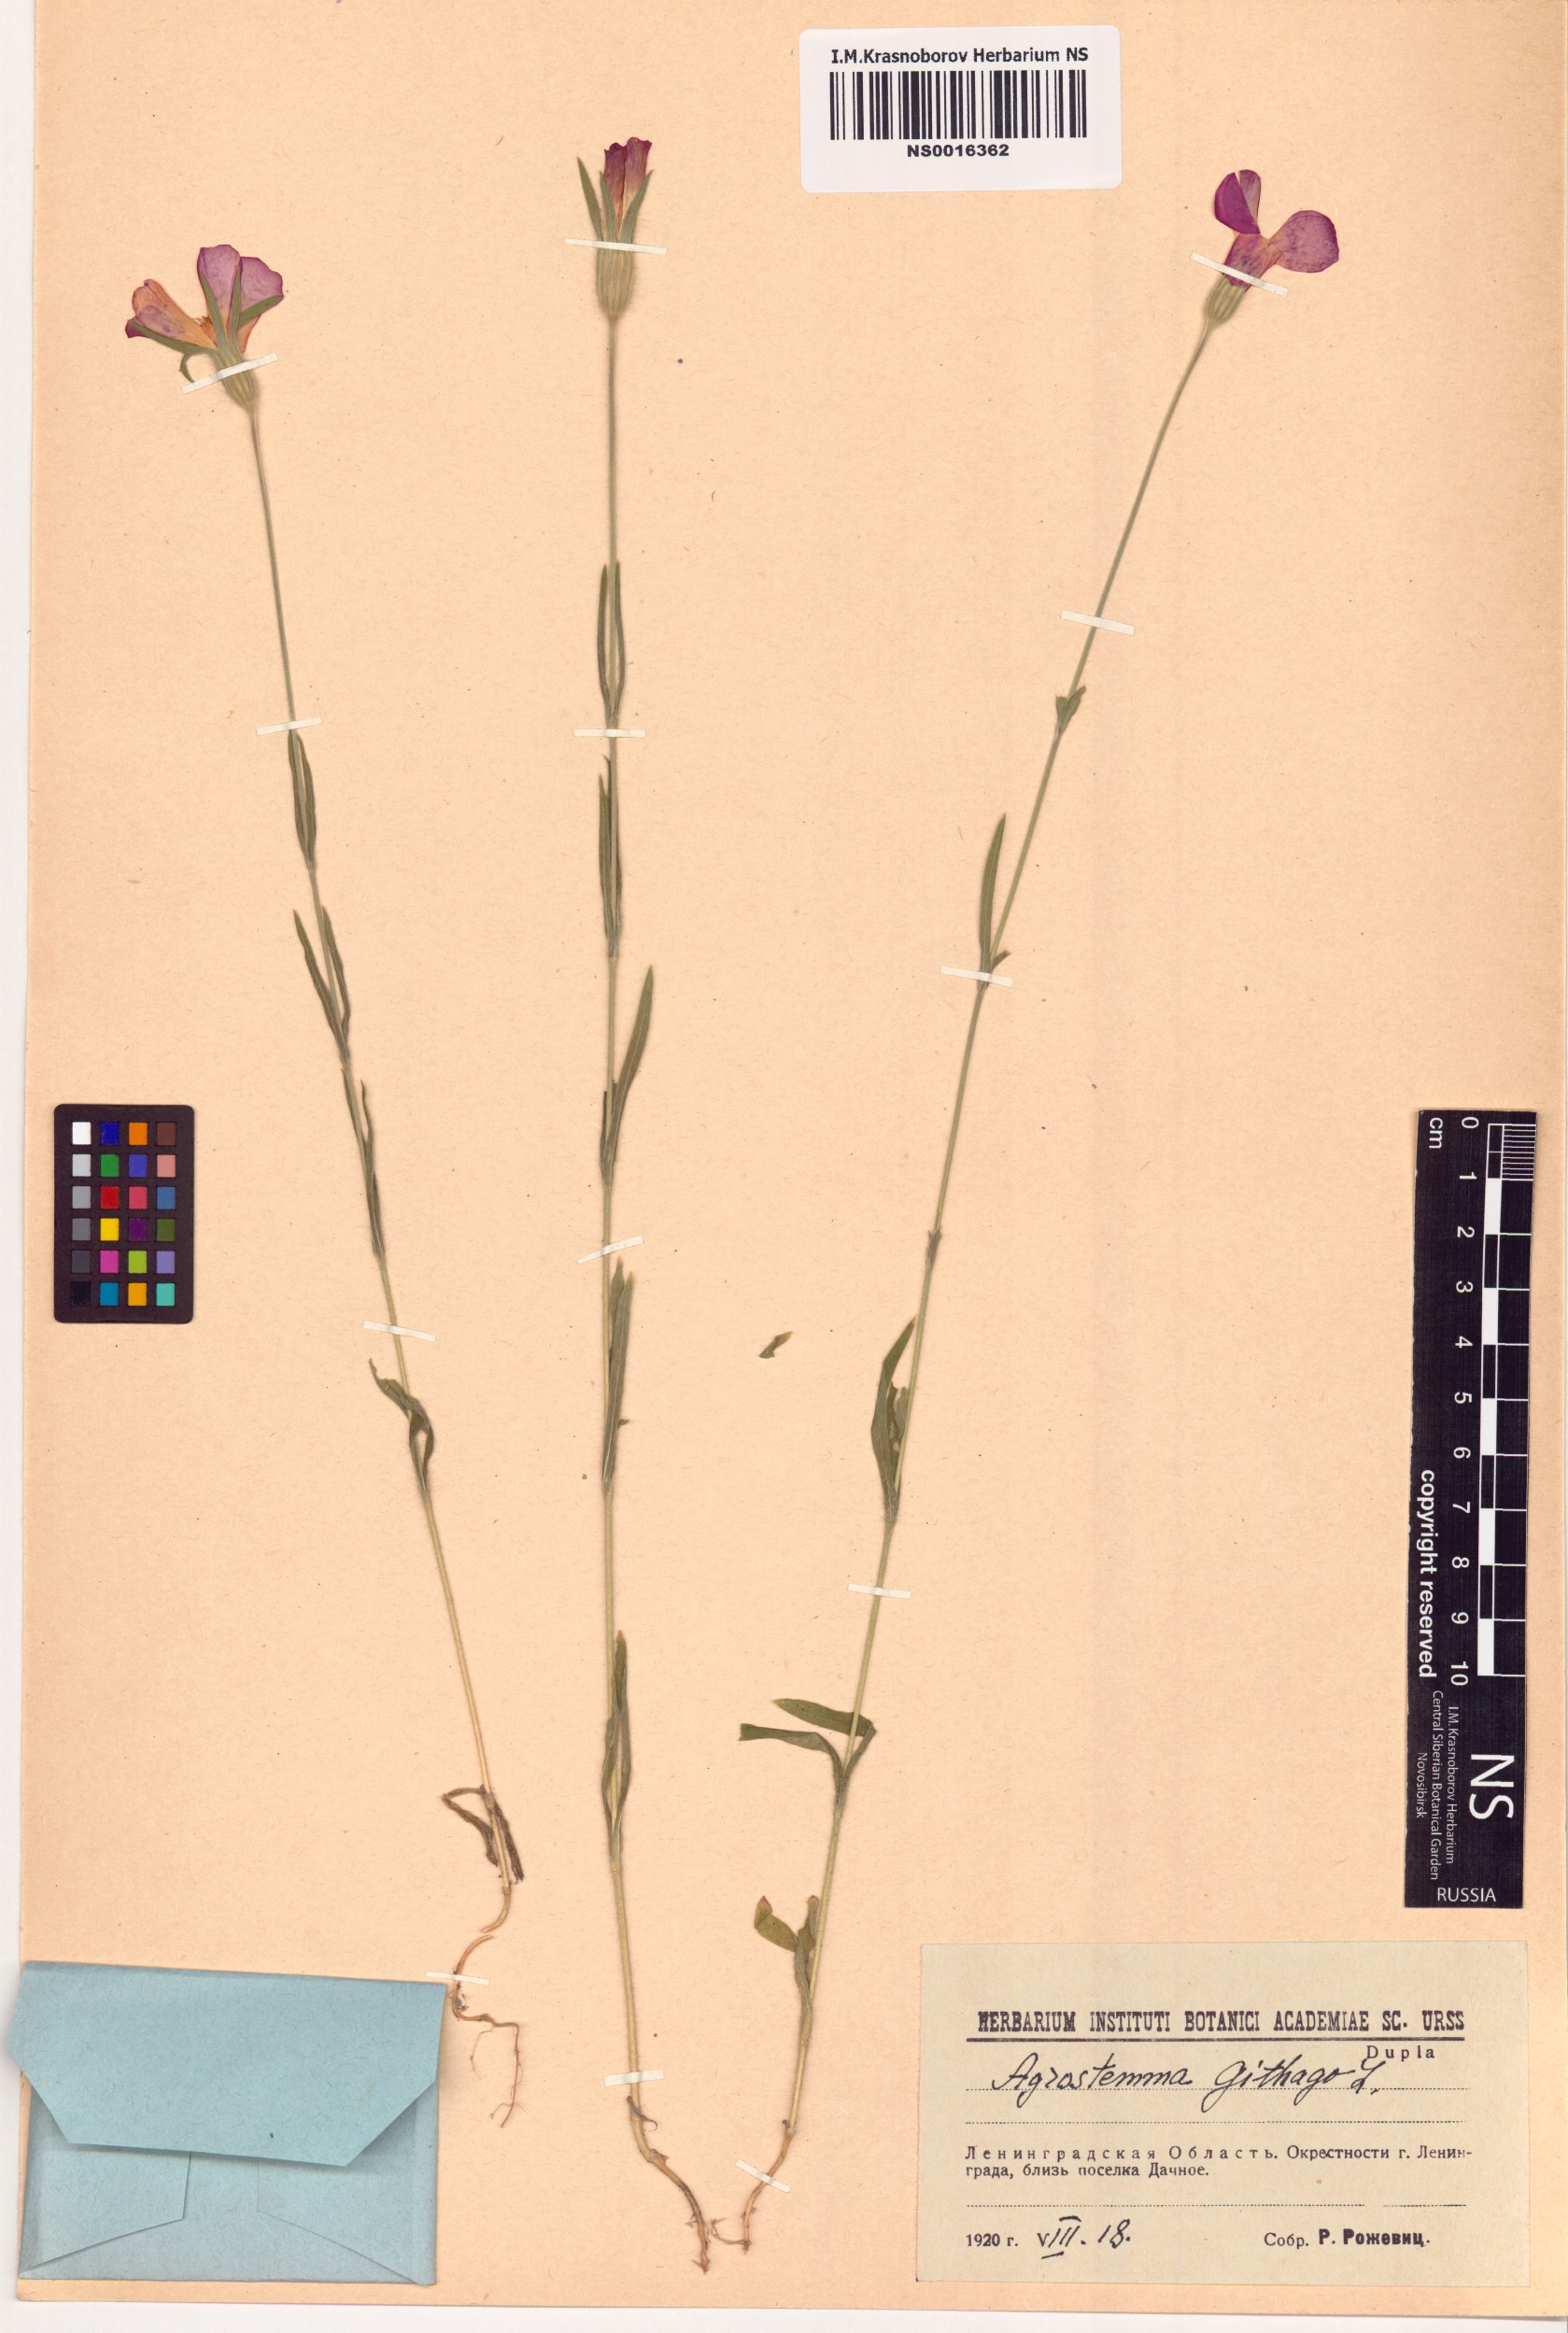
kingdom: Plantae
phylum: Tracheophyta
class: Magnoliopsida
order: Caryophyllales
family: Caryophyllaceae
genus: Agrostemma
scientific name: Agrostemma githago
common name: Common corncockle
